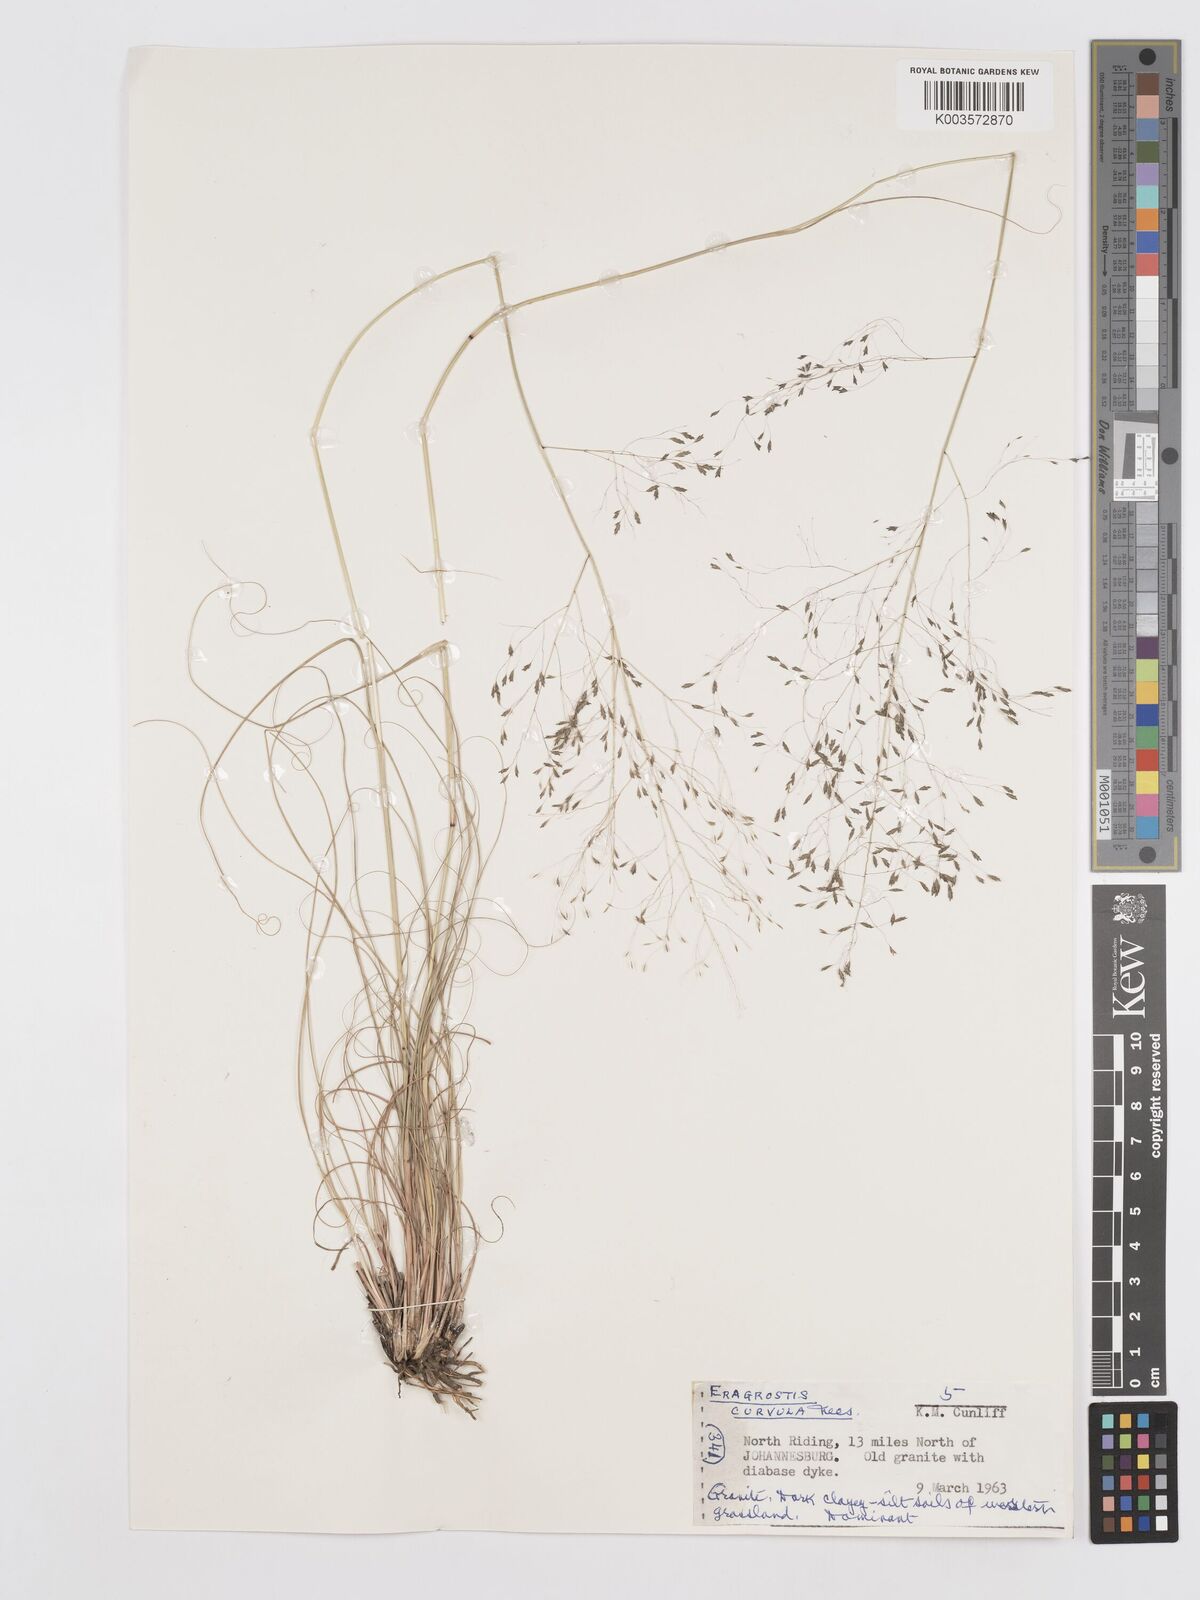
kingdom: Plantae
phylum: Tracheophyta
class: Liliopsida
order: Poales
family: Poaceae
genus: Eragrostis
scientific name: Eragrostis curvula
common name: African love-grass
